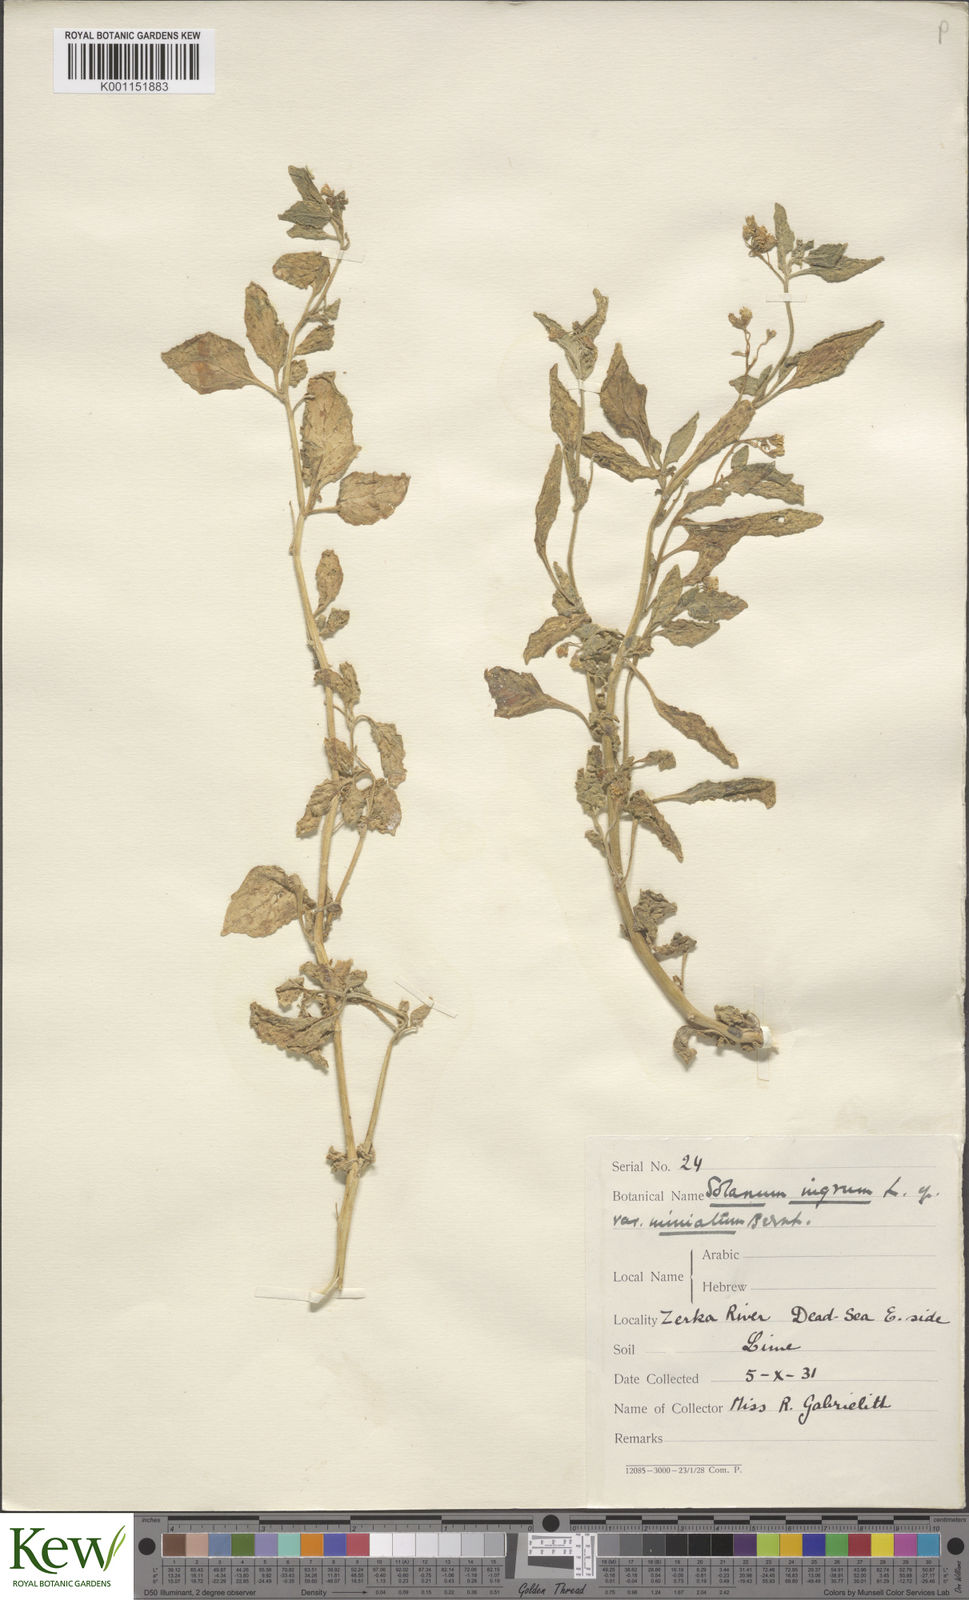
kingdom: Plantae
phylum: Tracheophyta
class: Magnoliopsida
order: Solanales
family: Solanaceae
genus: Solanum
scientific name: Solanum villosum
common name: Red nightshade
